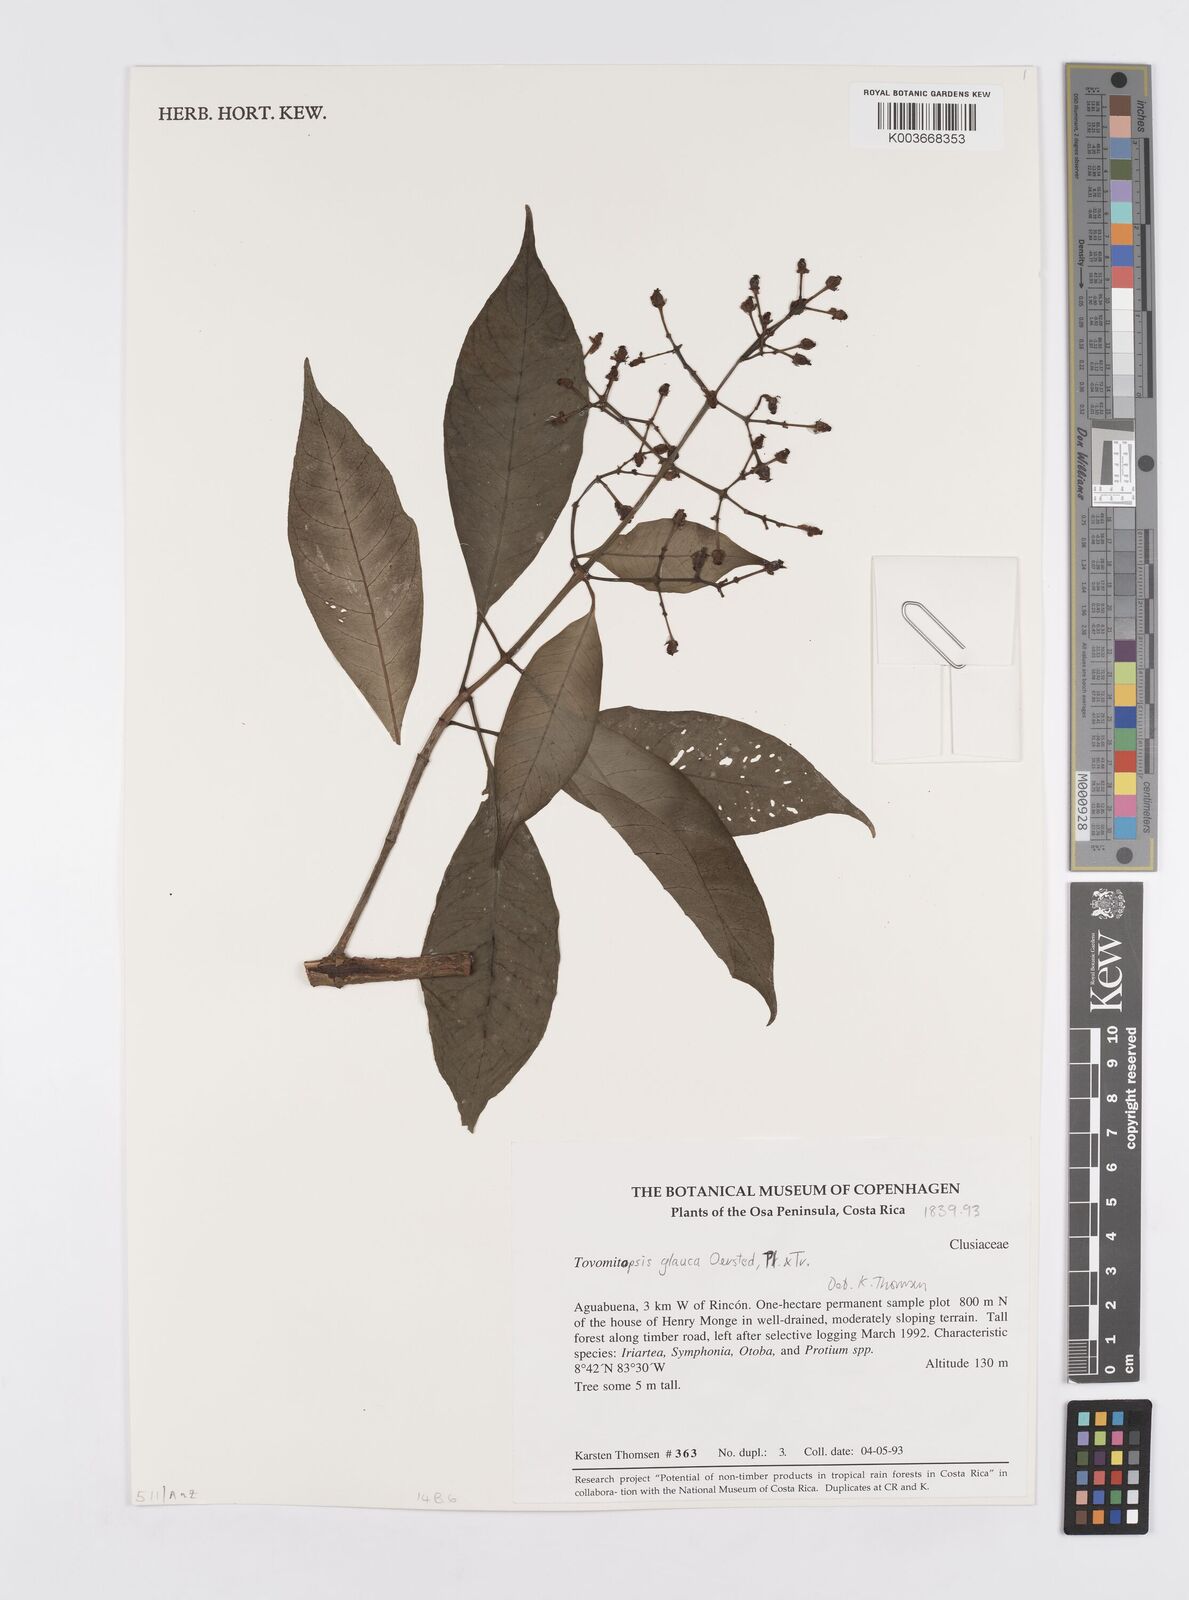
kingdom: Plantae
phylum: Tracheophyta
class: Magnoliopsida
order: Malpighiales
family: Clusiaceae
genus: Chrysochlamys
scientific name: Chrysochlamys glauca
